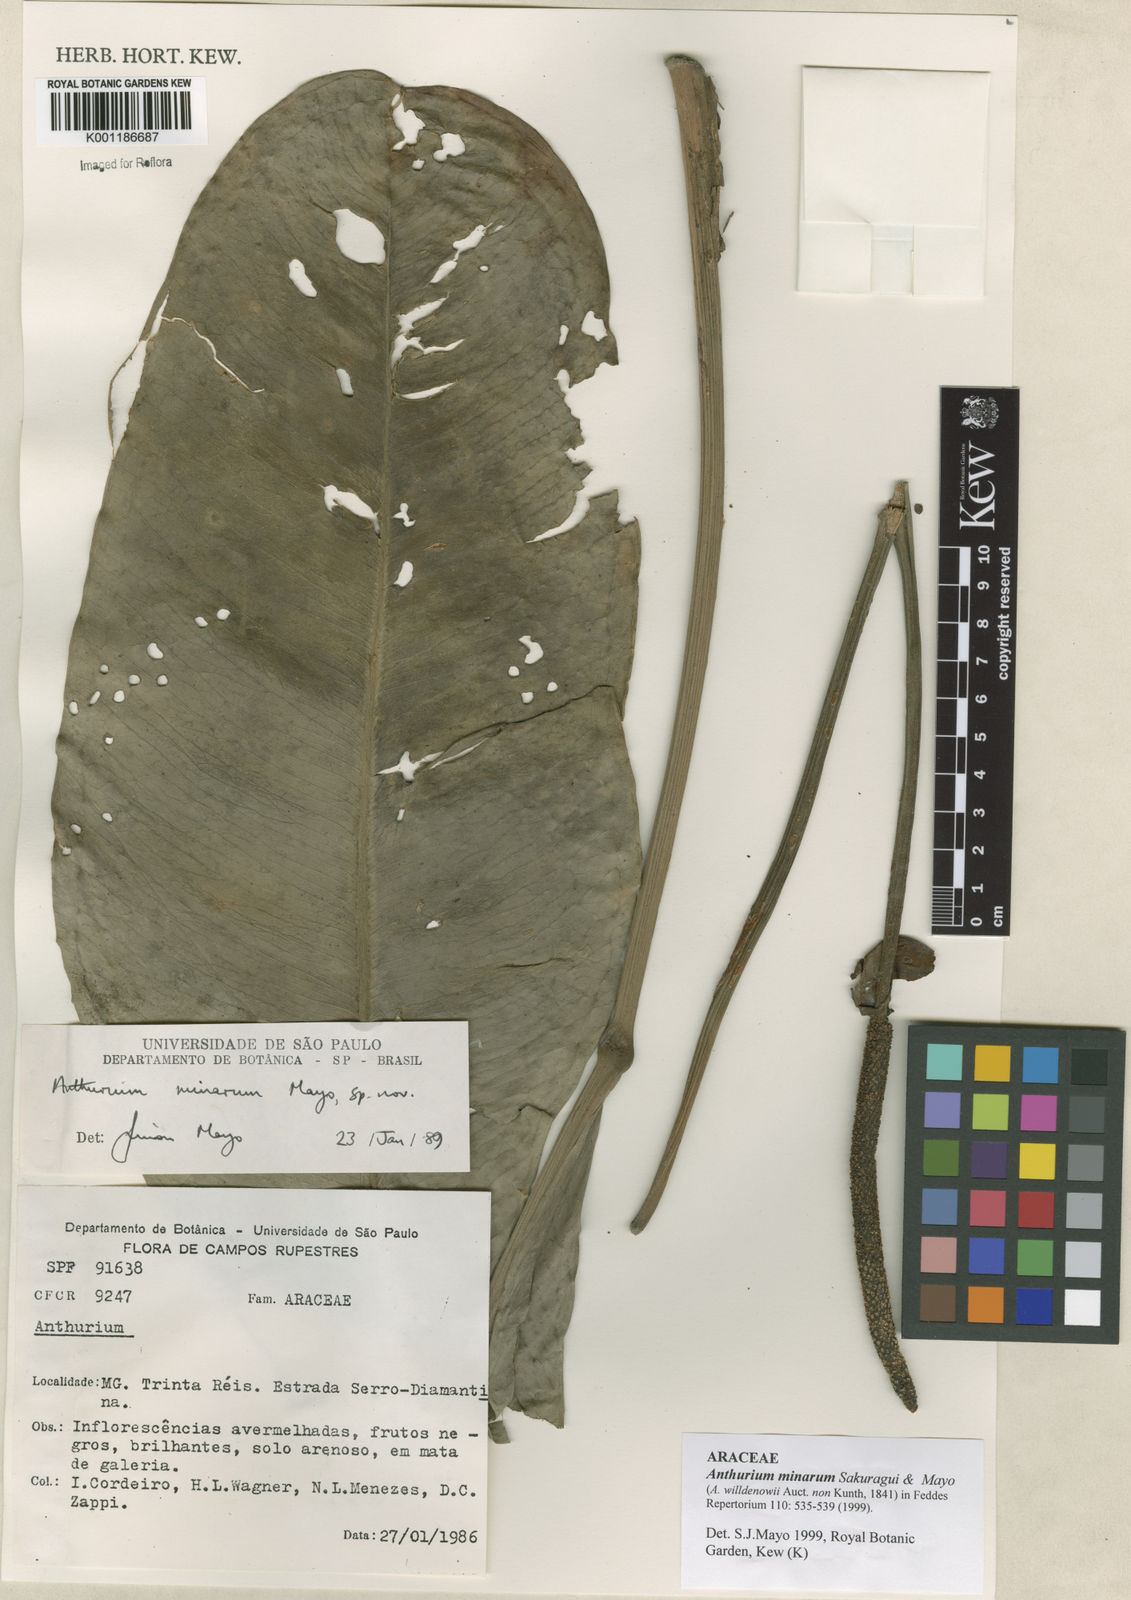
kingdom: Plantae
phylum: Tracheophyta
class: Liliopsida
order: Alismatales
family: Araceae
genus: Anthurium
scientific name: Anthurium minarum
